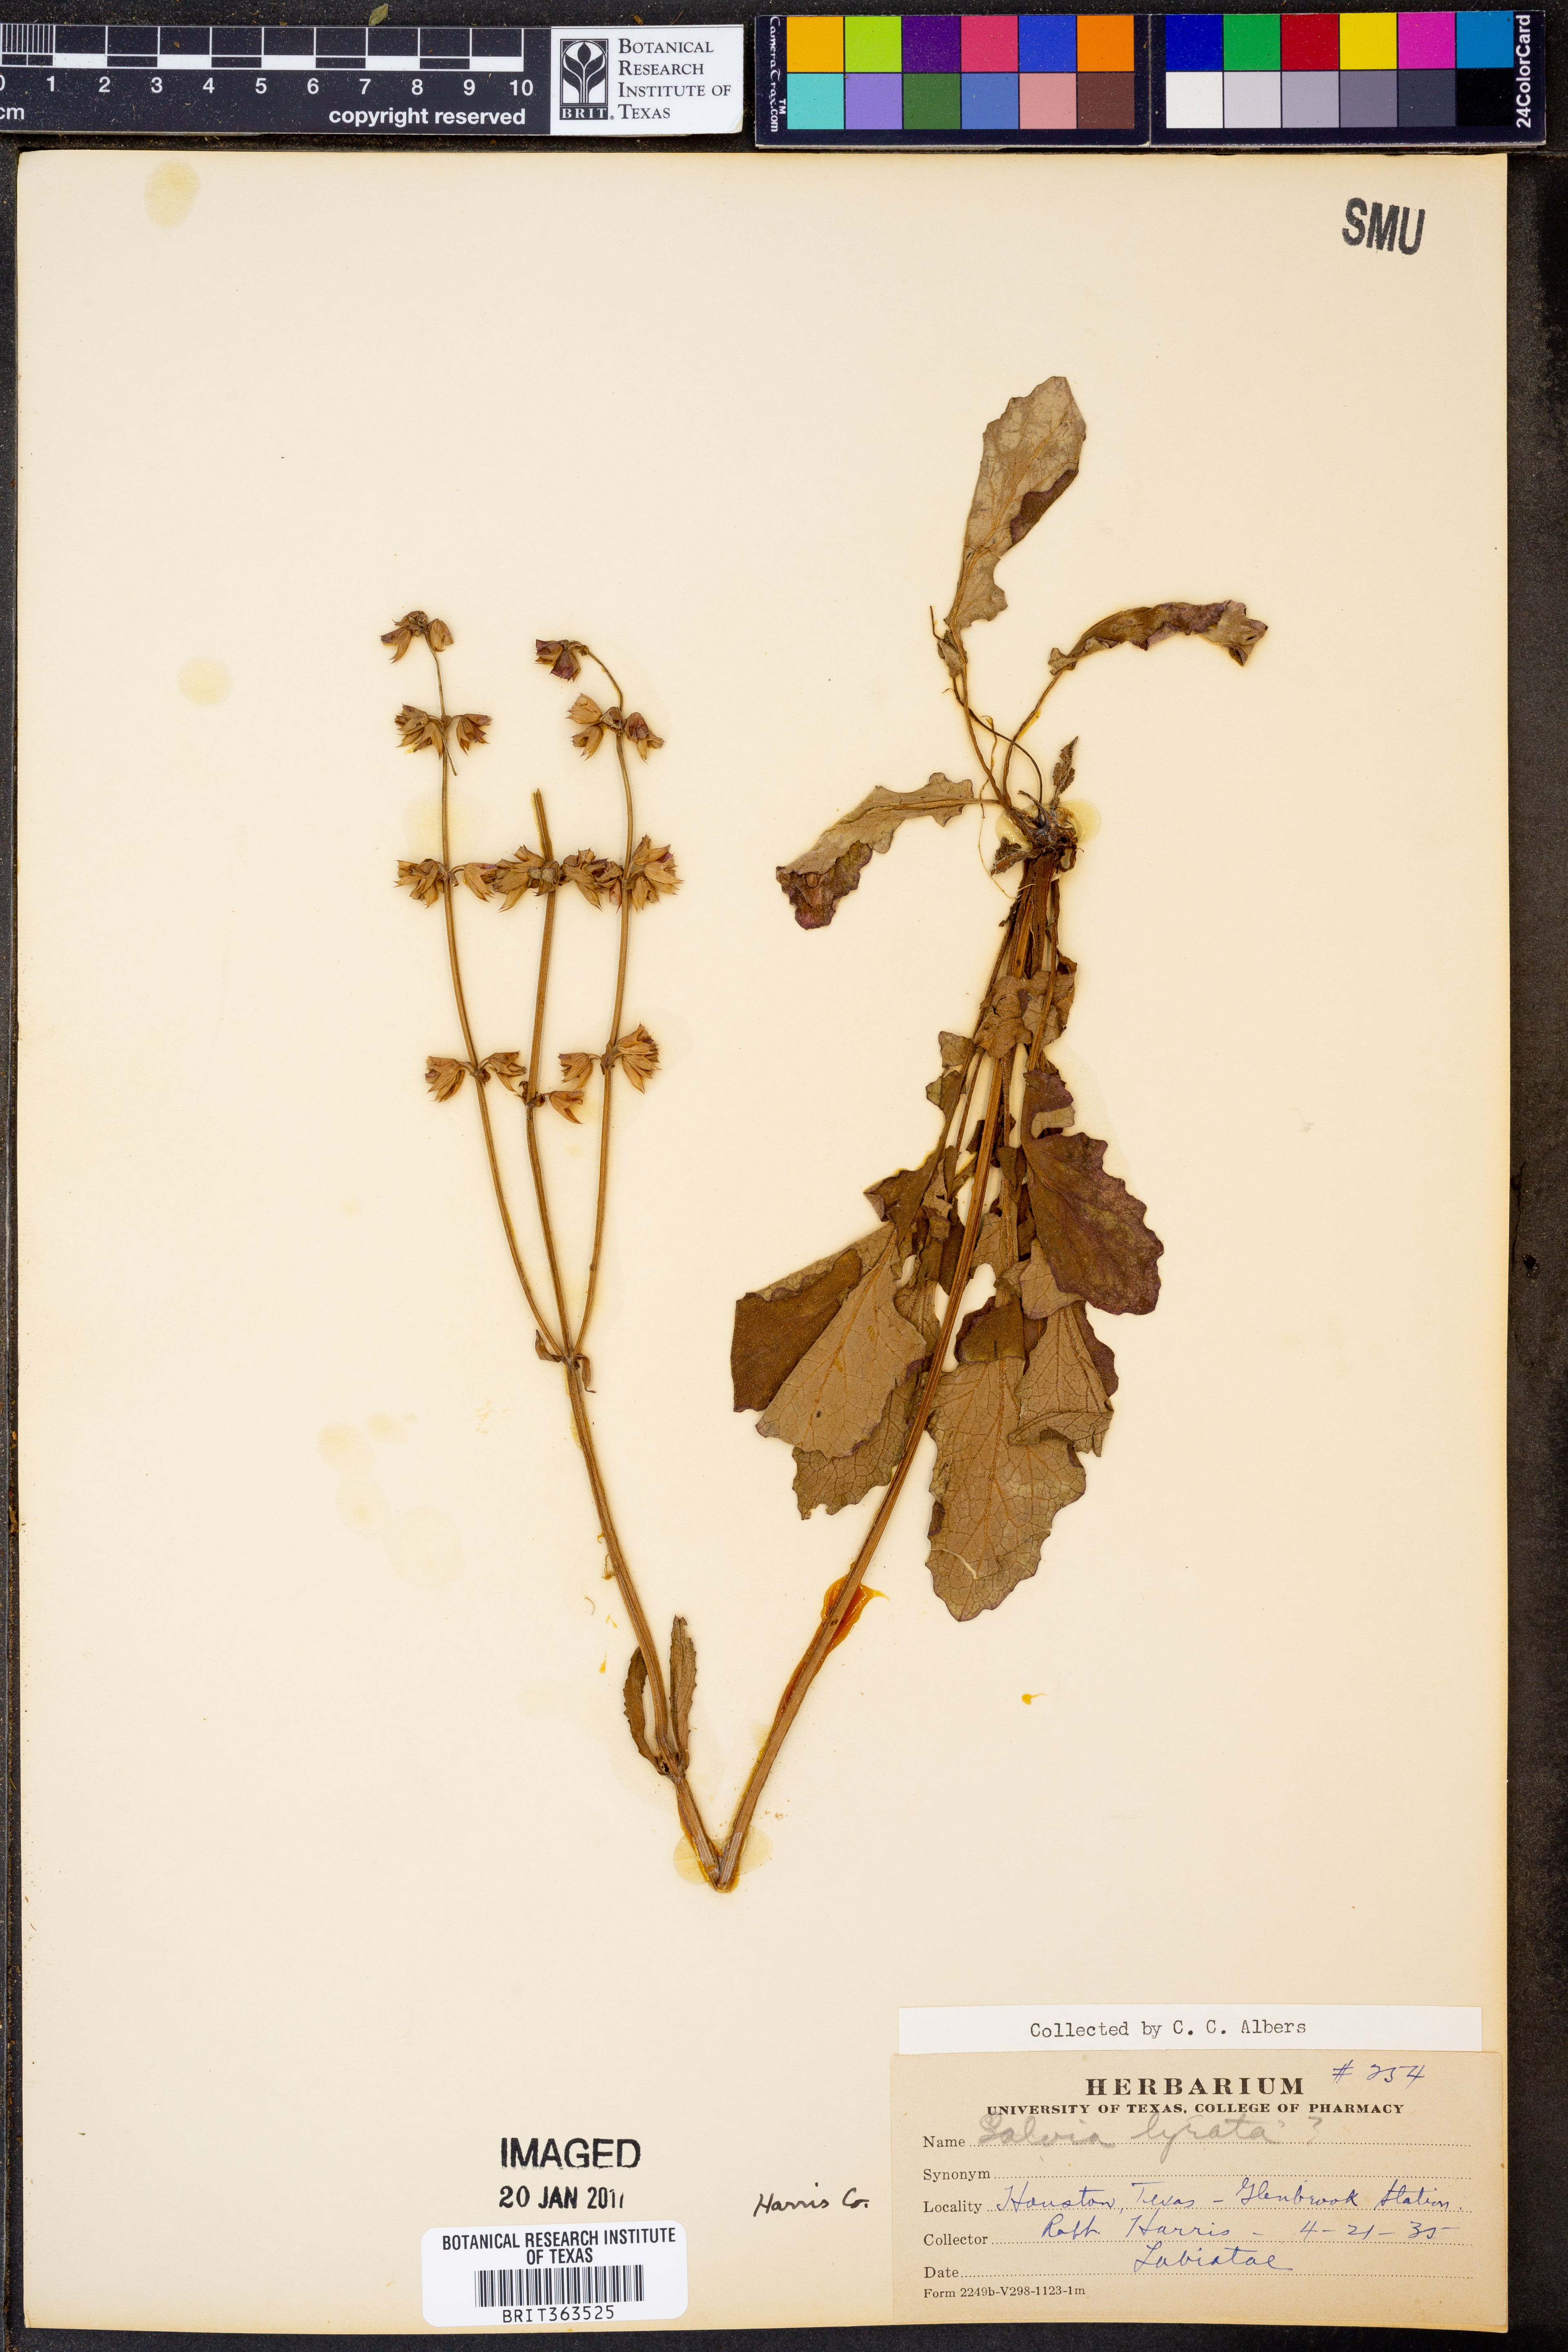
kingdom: Plantae
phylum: Tracheophyta
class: Magnoliopsida
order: Lamiales
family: Lamiaceae
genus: Salvia
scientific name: Salvia lyrata
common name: Cancerweed
